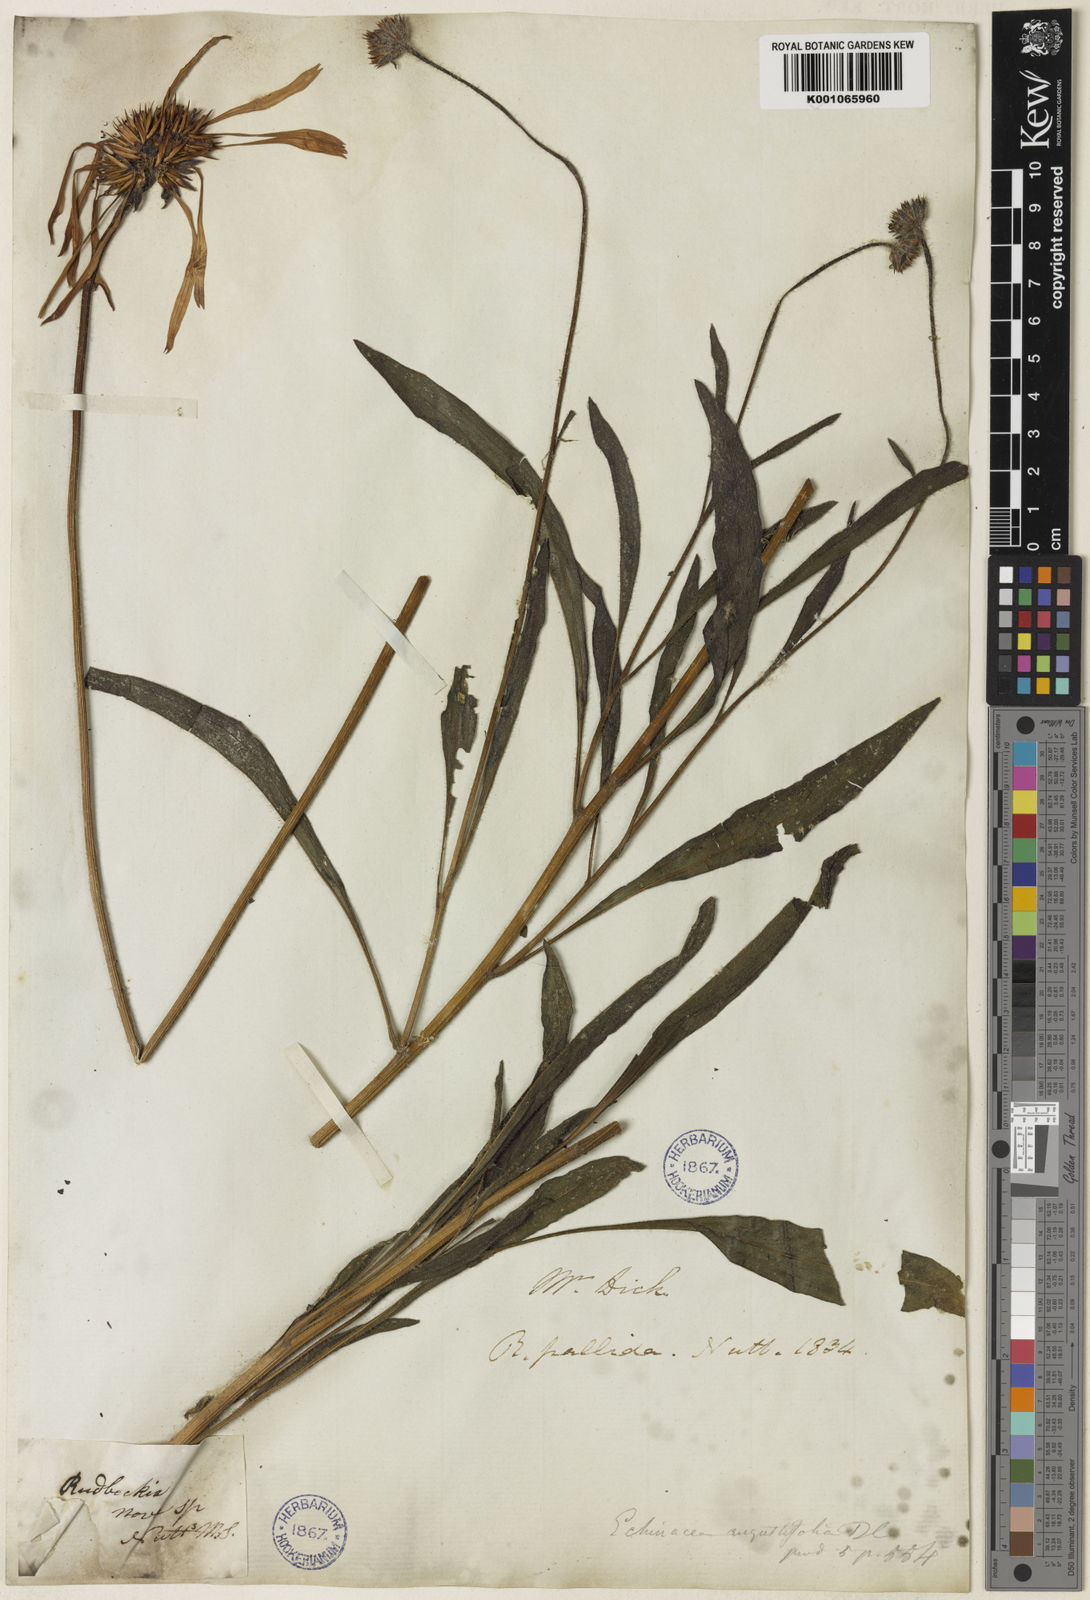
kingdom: Plantae
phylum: Tracheophyta
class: Magnoliopsida
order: Asterales
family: Asteraceae
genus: Echinacea
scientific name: Echinacea angustifolia
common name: Black-sampson echinacea
